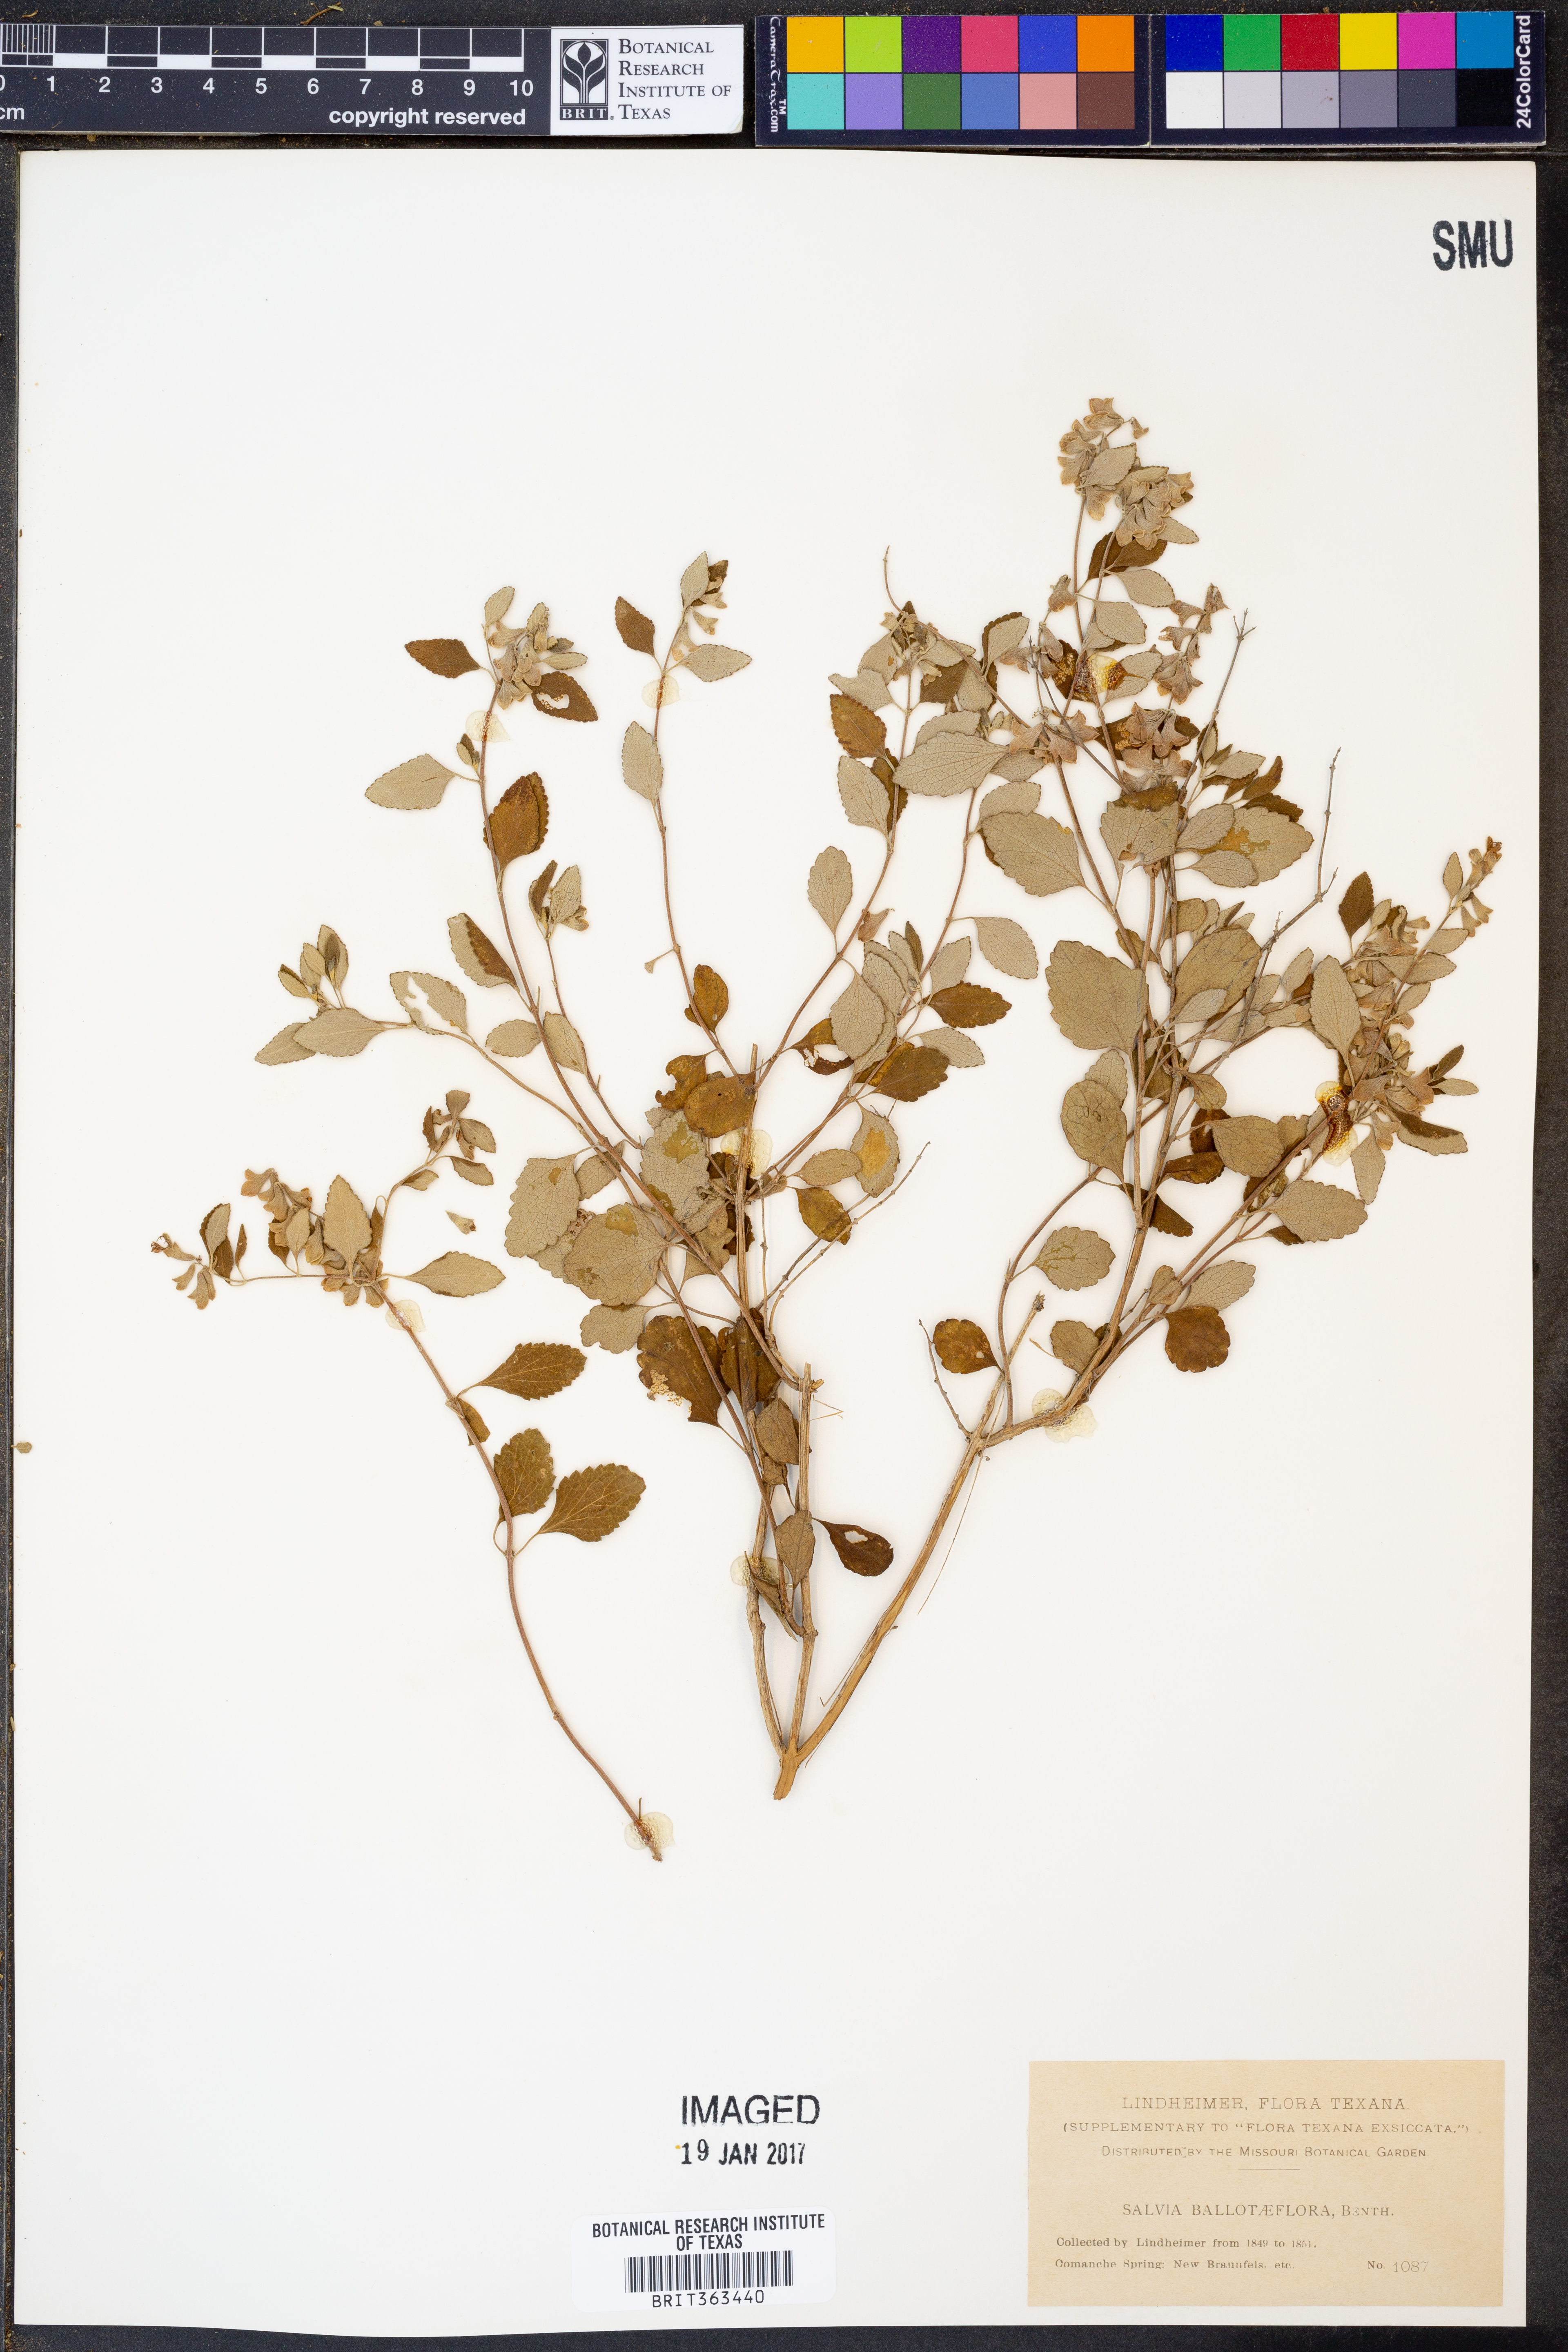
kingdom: Plantae
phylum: Tracheophyta
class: Magnoliopsida
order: Lamiales
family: Lamiaceae
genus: Salvia
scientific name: Salvia ballotiflora
